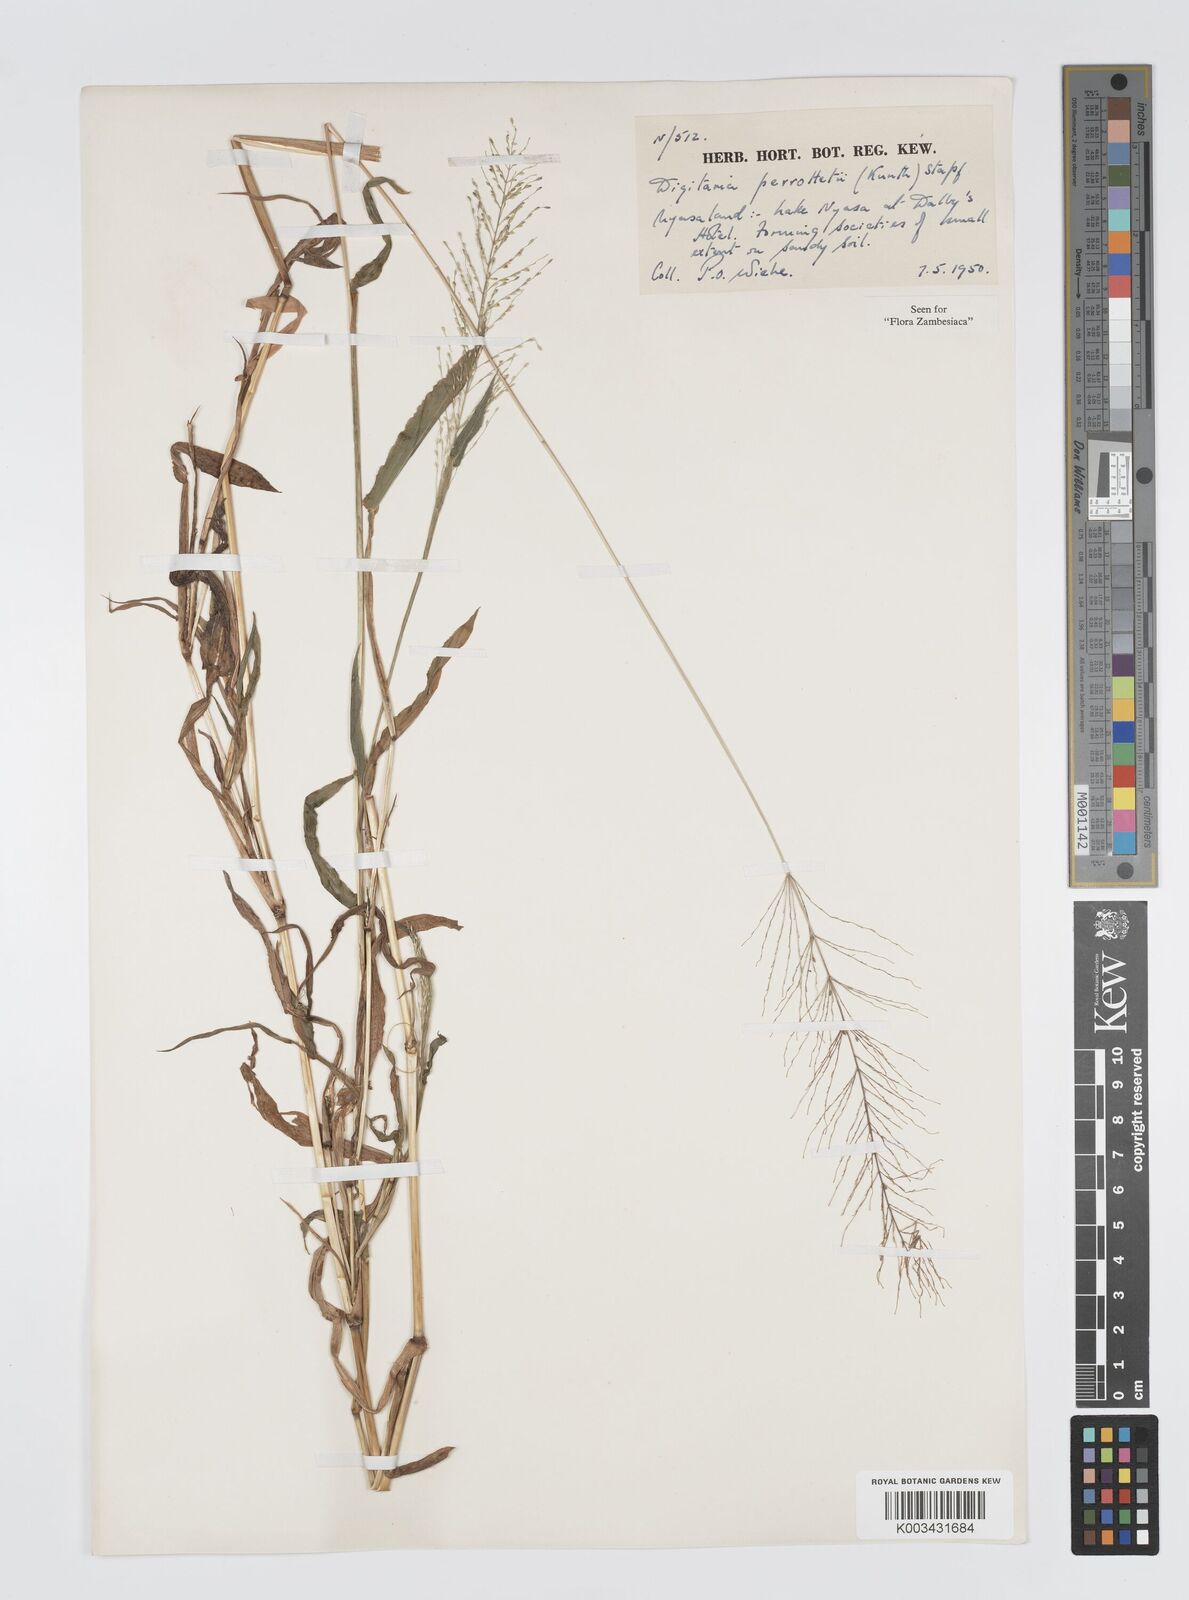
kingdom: Plantae
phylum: Tracheophyta
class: Liliopsida
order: Poales
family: Poaceae
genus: Digitaria
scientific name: Digitaria perrottetii
